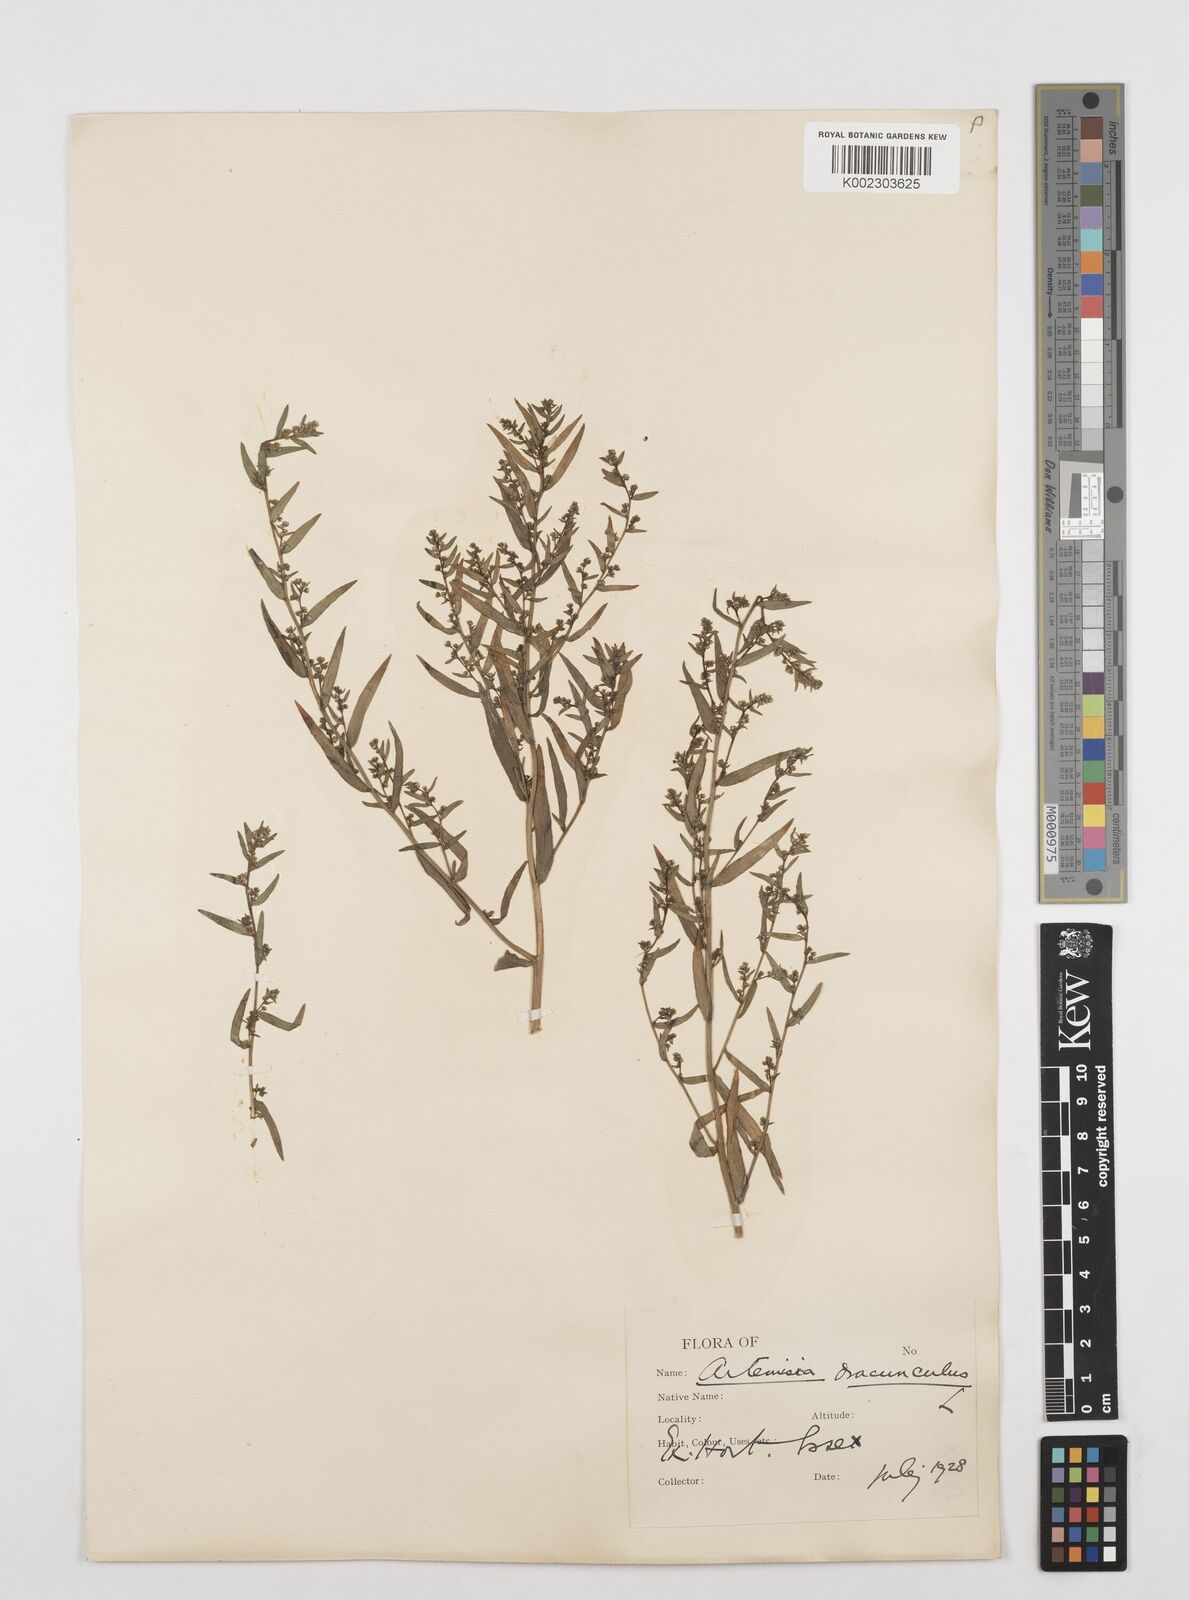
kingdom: Plantae
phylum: Tracheophyta
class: Magnoliopsida
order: Asterales
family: Asteraceae
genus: Artemisia
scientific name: Artemisia dracunculus
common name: Tarragon
